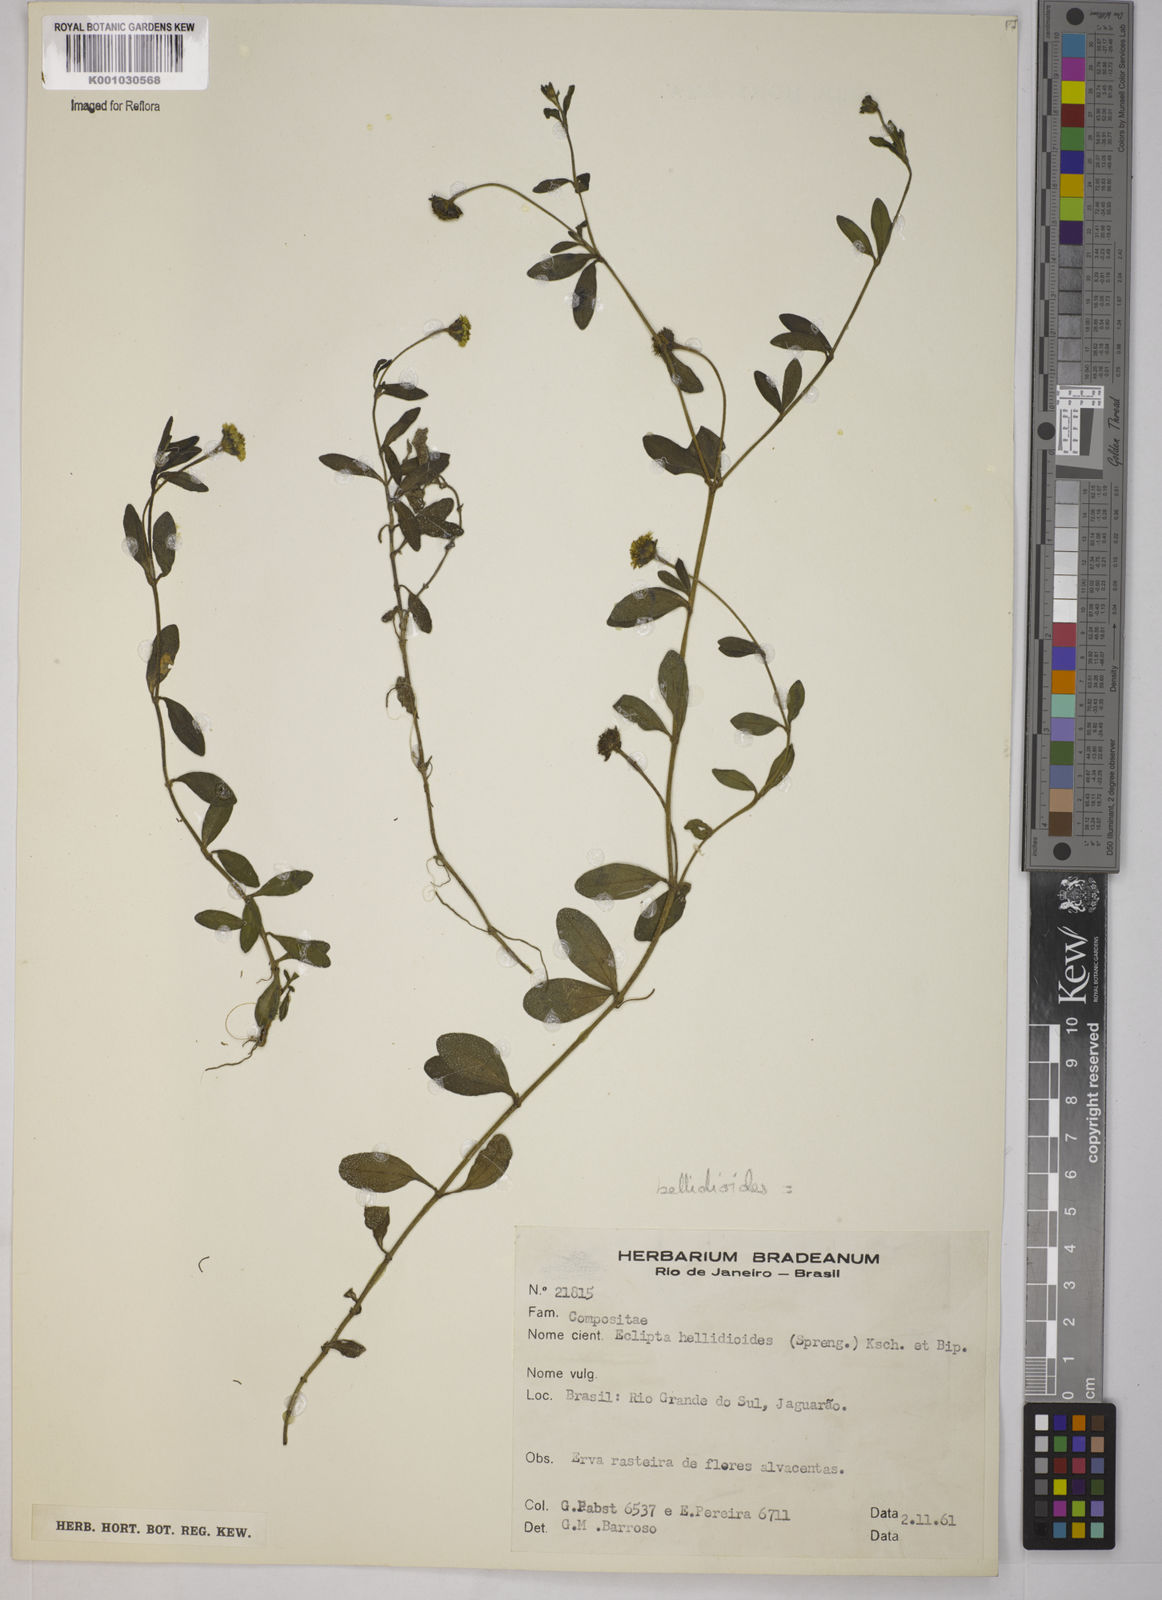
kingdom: Plantae
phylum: Tracheophyta
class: Magnoliopsida
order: Asterales
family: Asteraceae
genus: Jaegeria
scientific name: Jaegeria hirta
